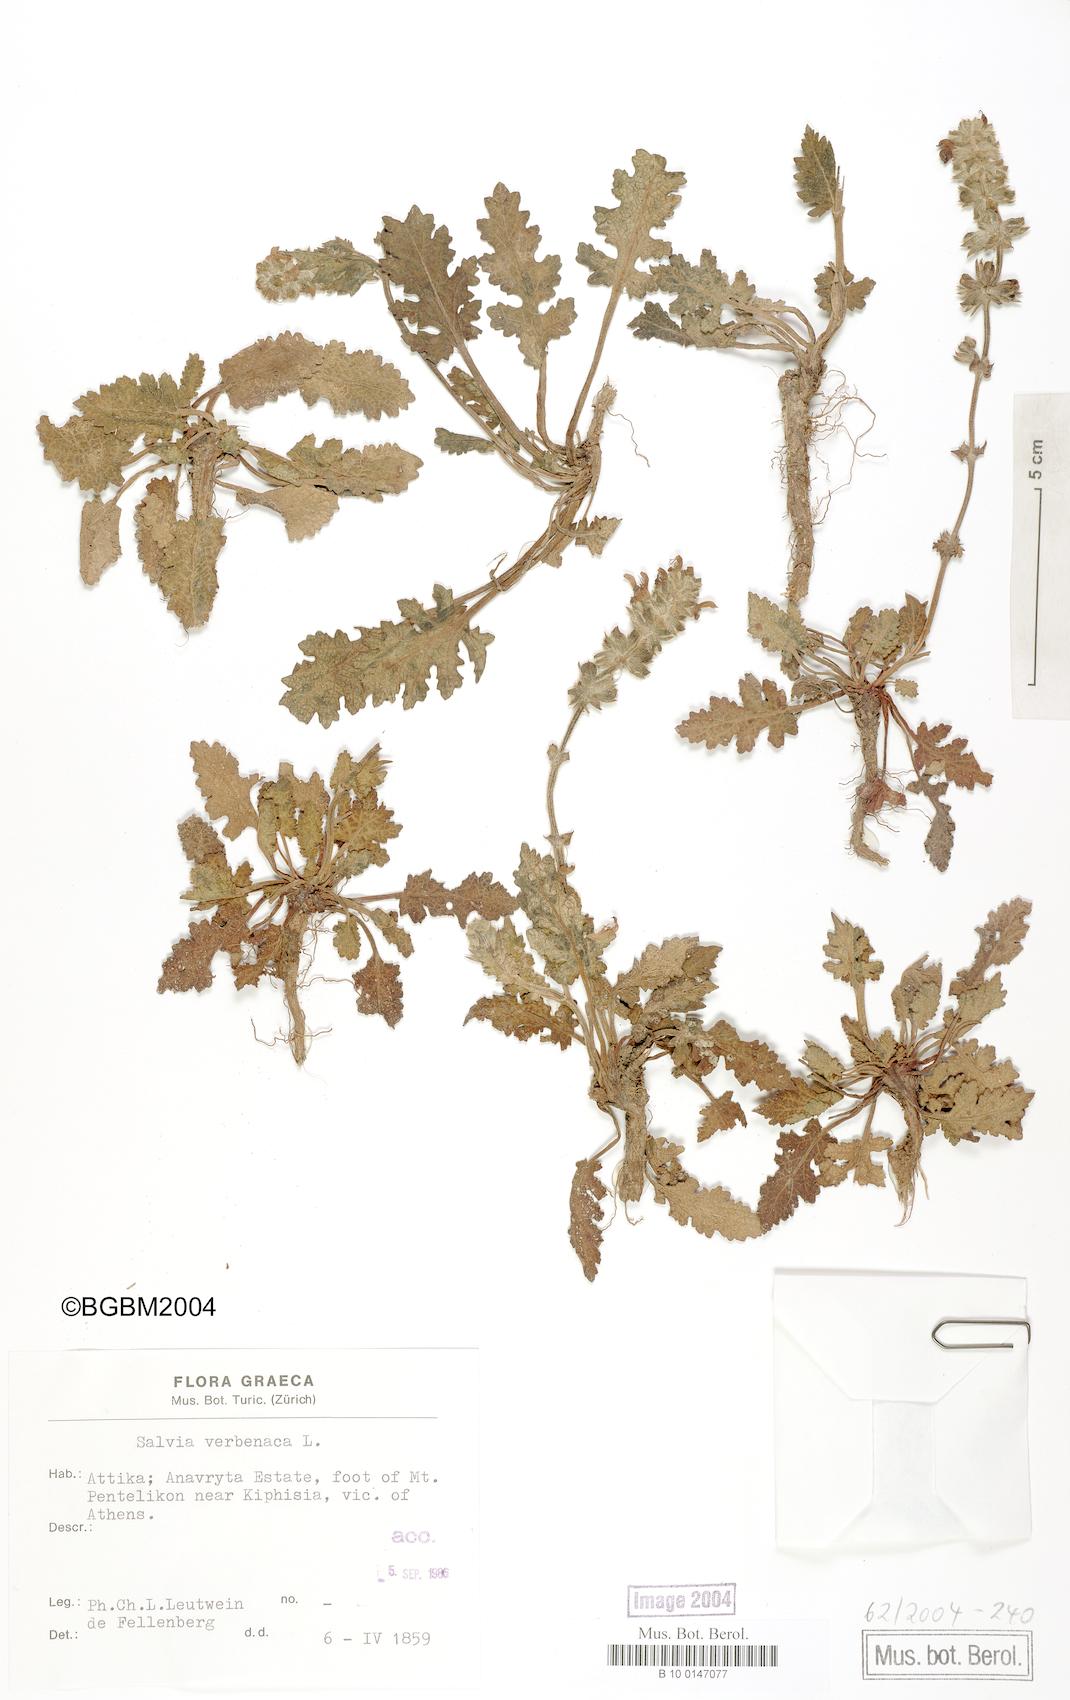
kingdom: Plantae
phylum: Tracheophyta
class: Magnoliopsida
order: Lamiales
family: Lamiaceae
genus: Salvia
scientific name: Salvia verbenaca
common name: Wild clary
